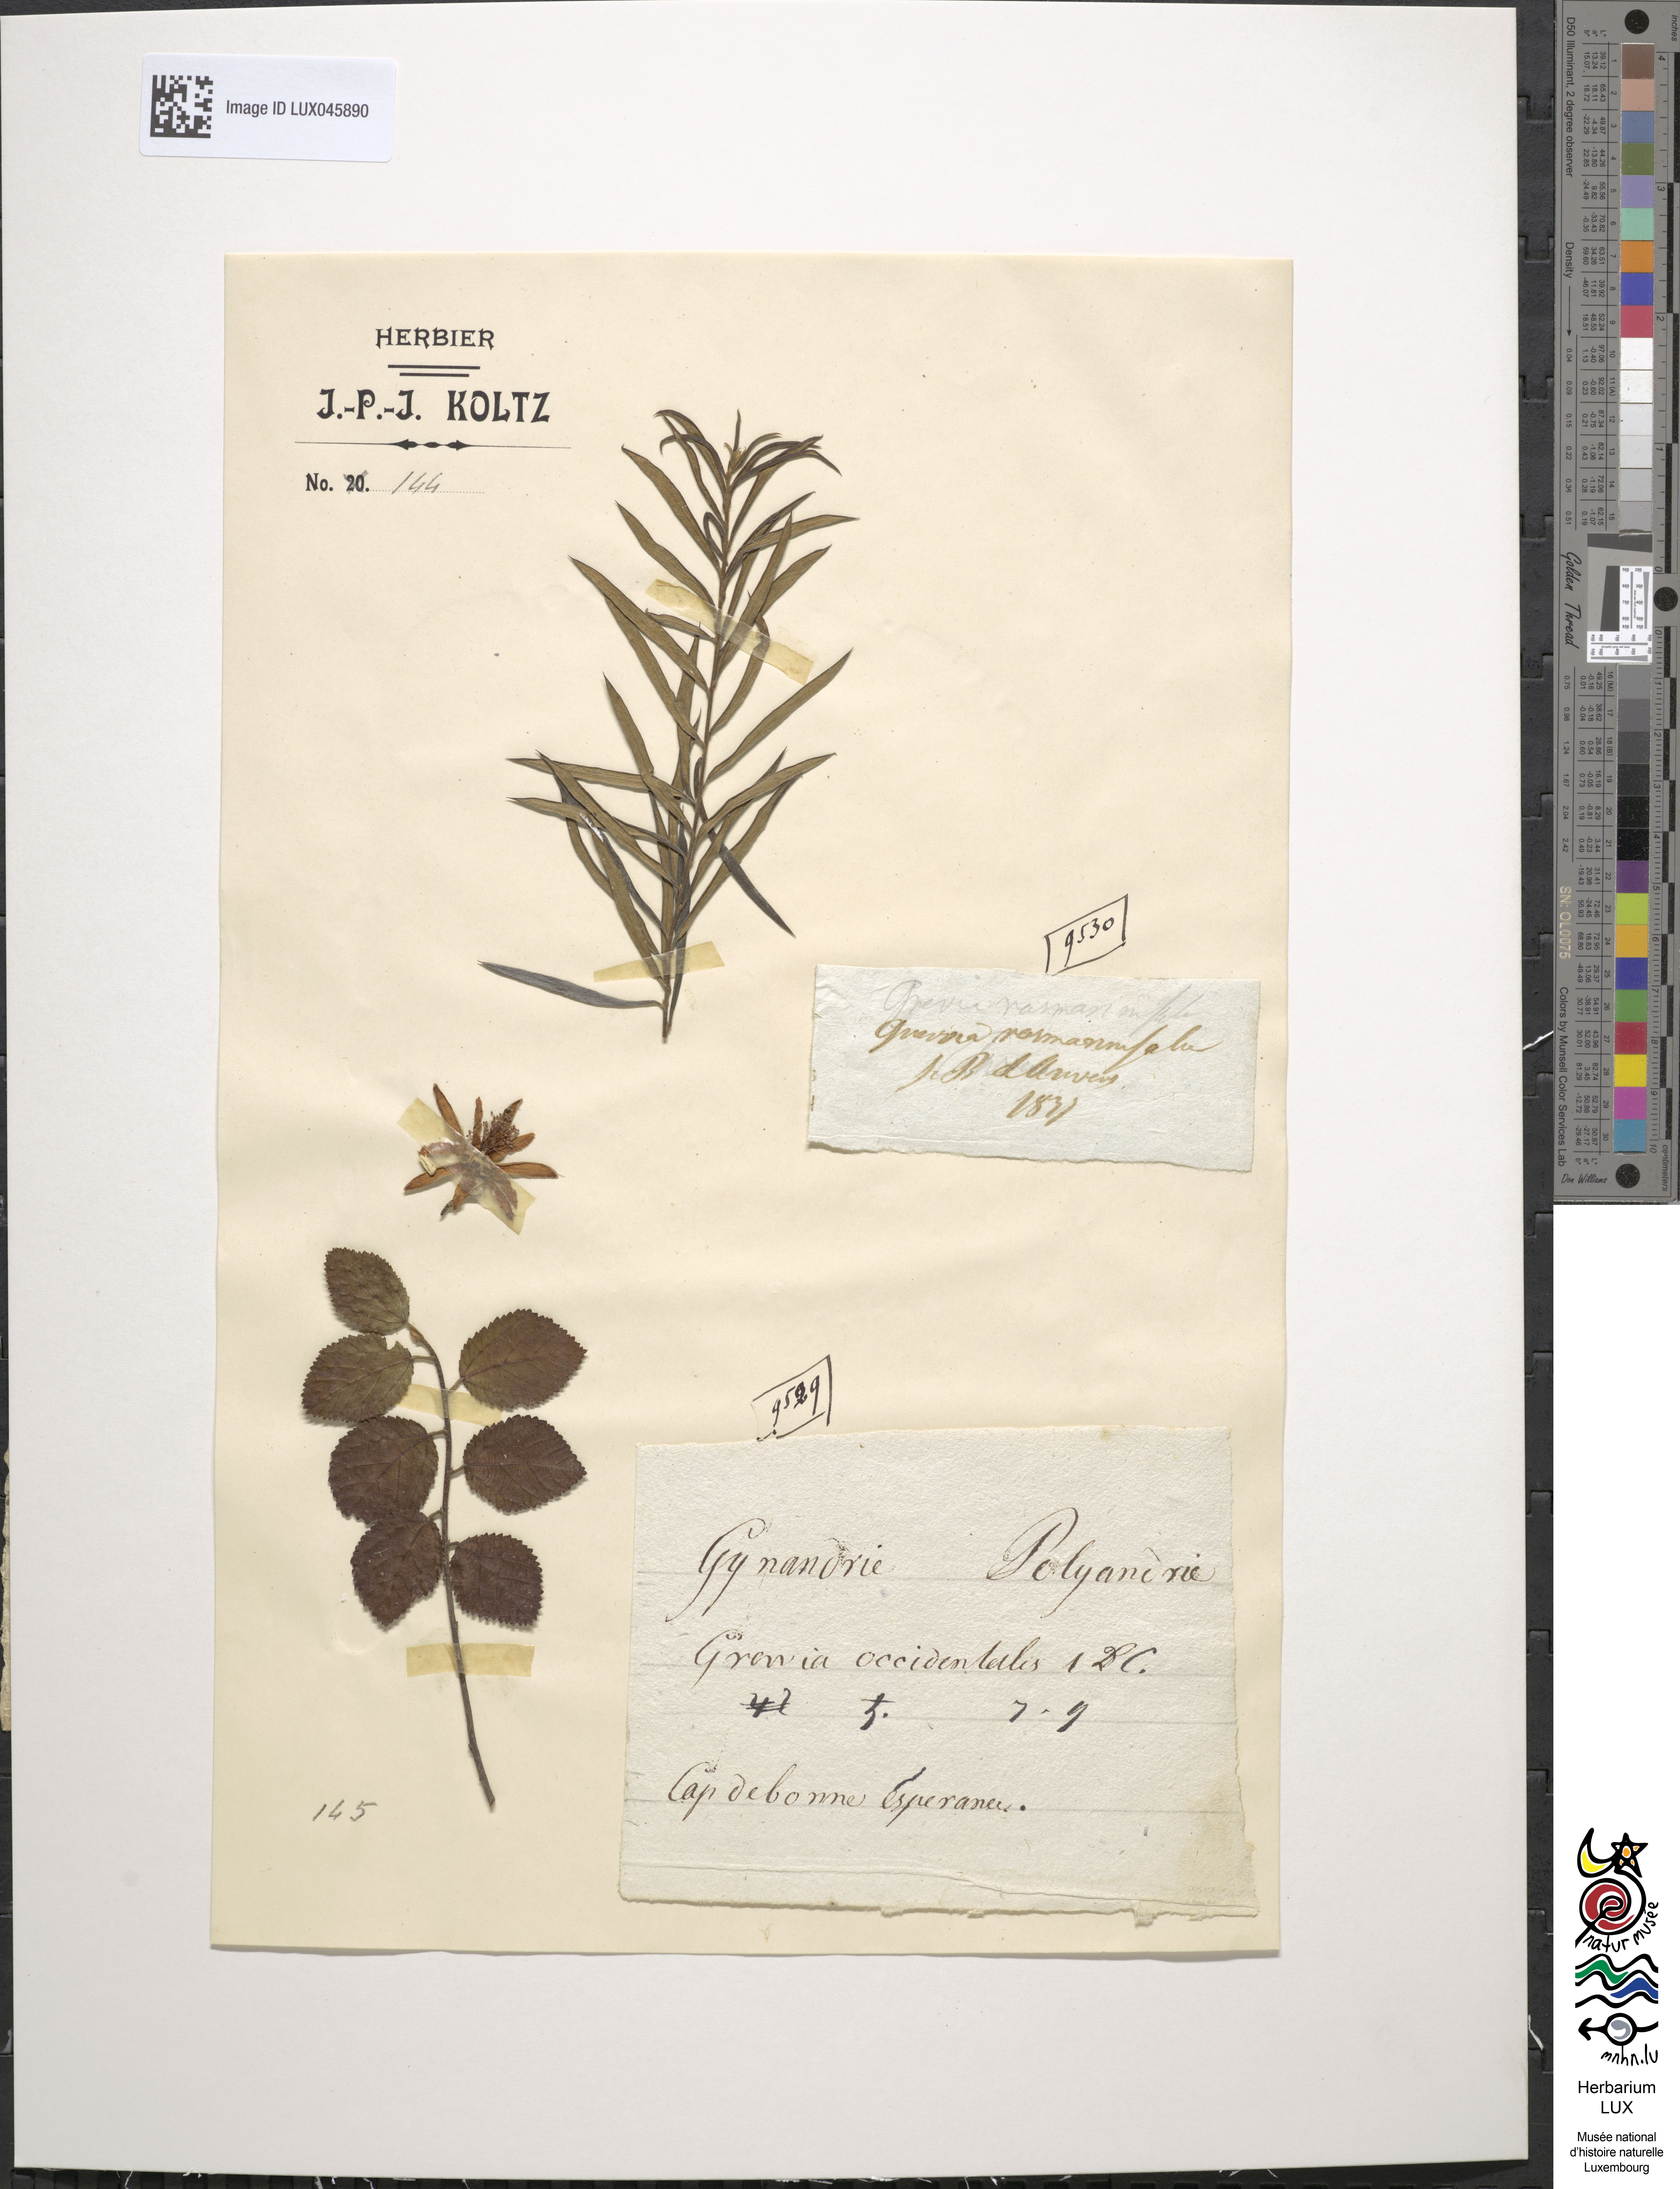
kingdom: Plantae
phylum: Tracheophyta
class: Magnoliopsida
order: Malvales
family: Malvaceae
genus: Grewia
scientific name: Grewia
